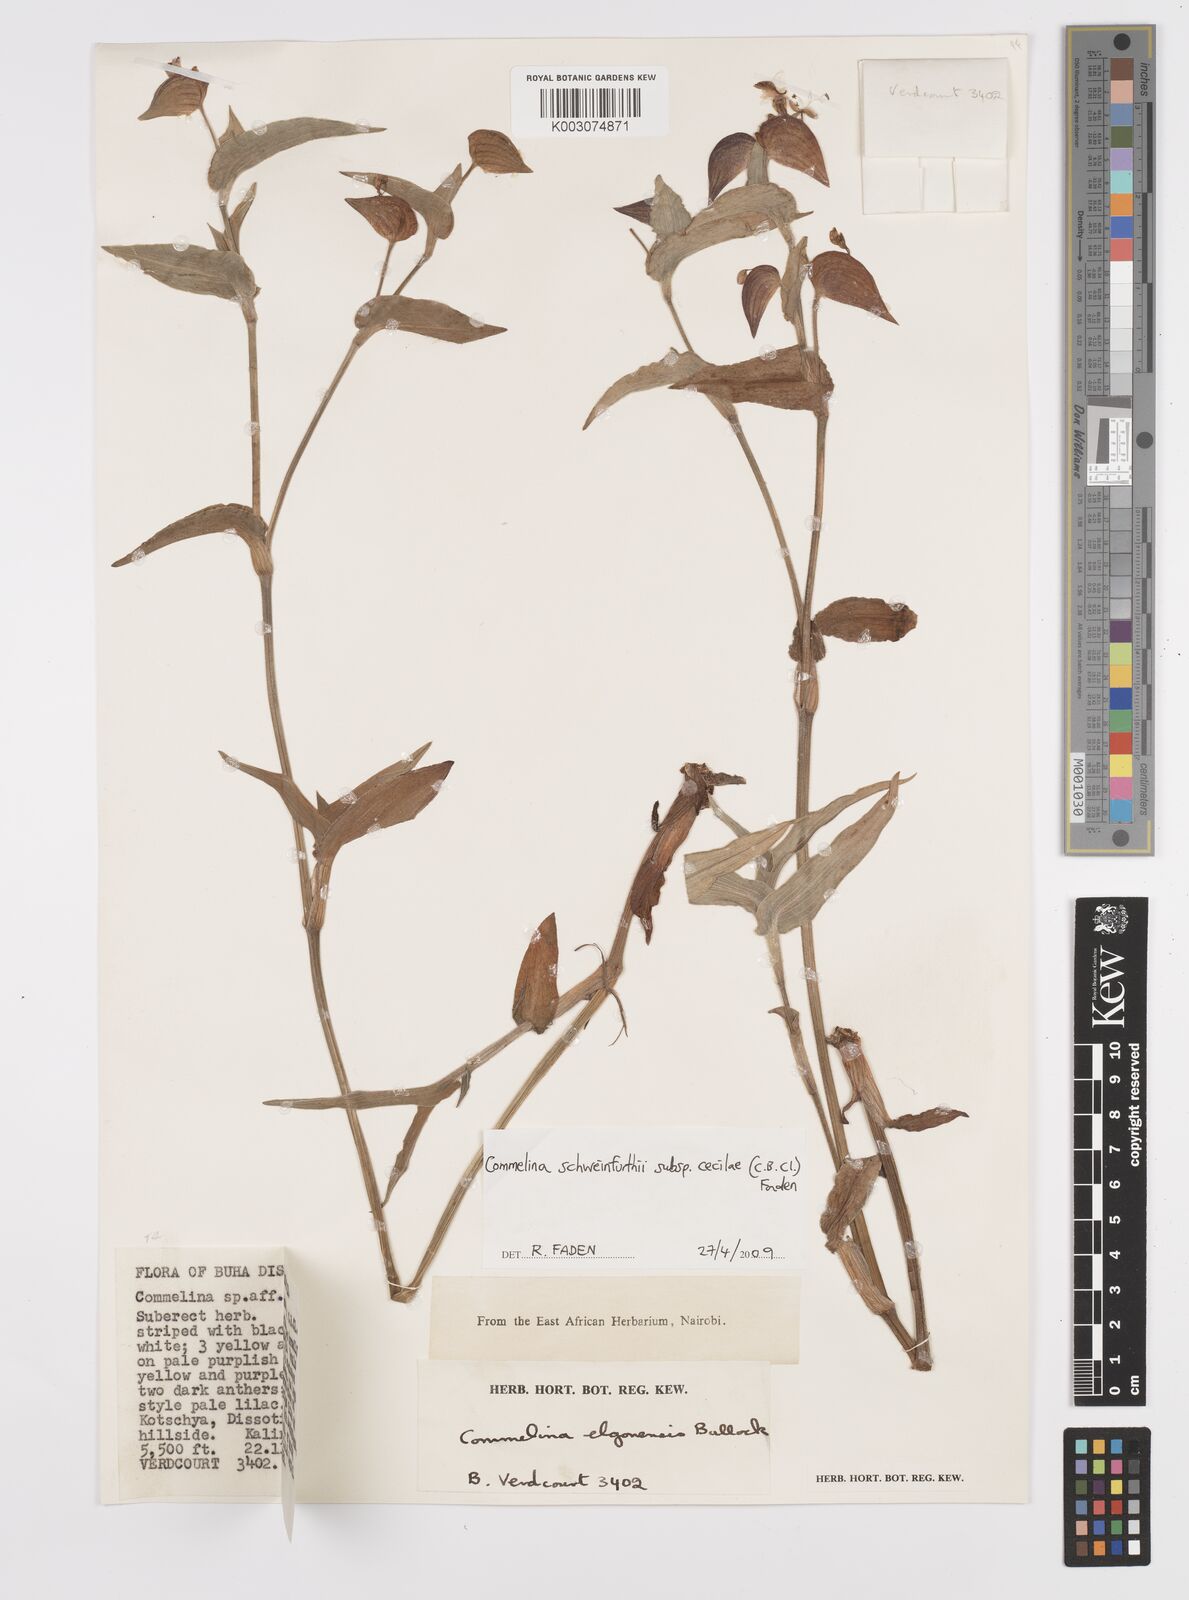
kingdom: Plantae
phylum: Tracheophyta
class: Liliopsida
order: Commelinales
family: Commelinaceae
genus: Commelina
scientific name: Commelina cecilae
